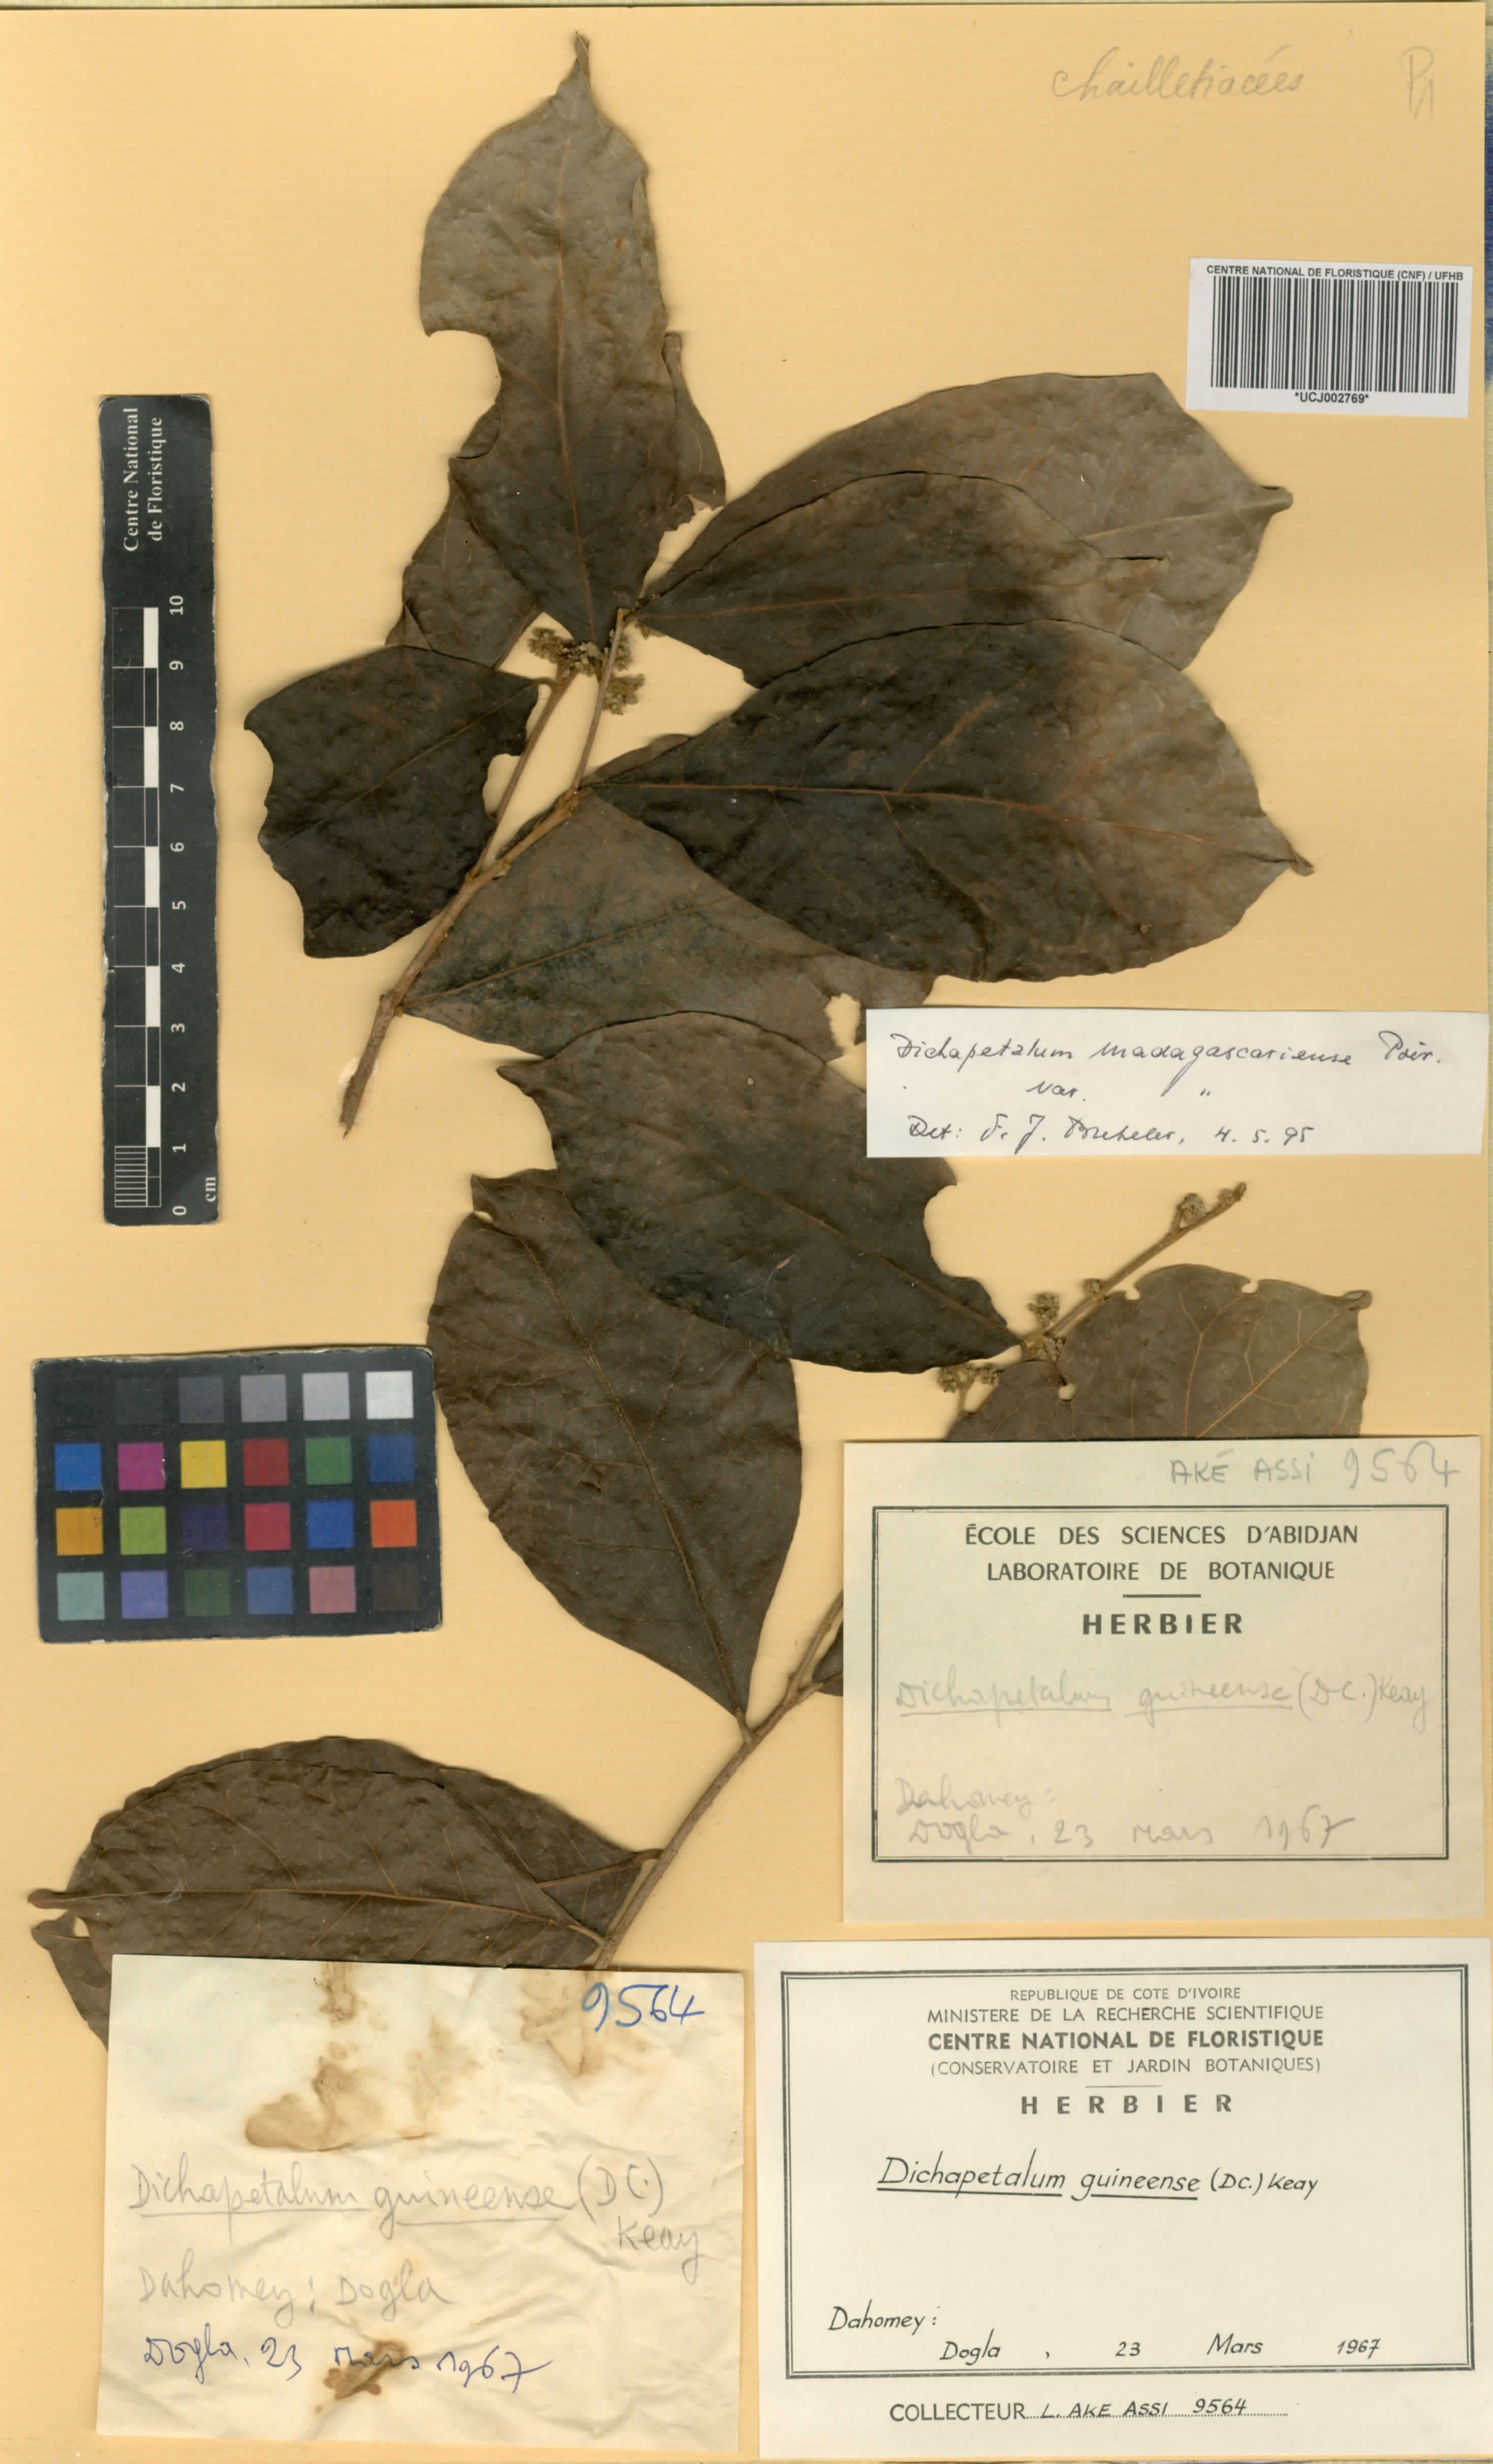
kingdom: Plantae
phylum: Tracheophyta
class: Magnoliopsida
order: Malpighiales
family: Dichapetalaceae
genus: Dichapetalum
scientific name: Dichapetalum madagascariense
